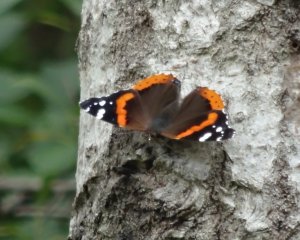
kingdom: Animalia
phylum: Arthropoda
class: Insecta
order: Lepidoptera
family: Nymphalidae
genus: Vanessa
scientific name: Vanessa atalanta
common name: Red Admiral
